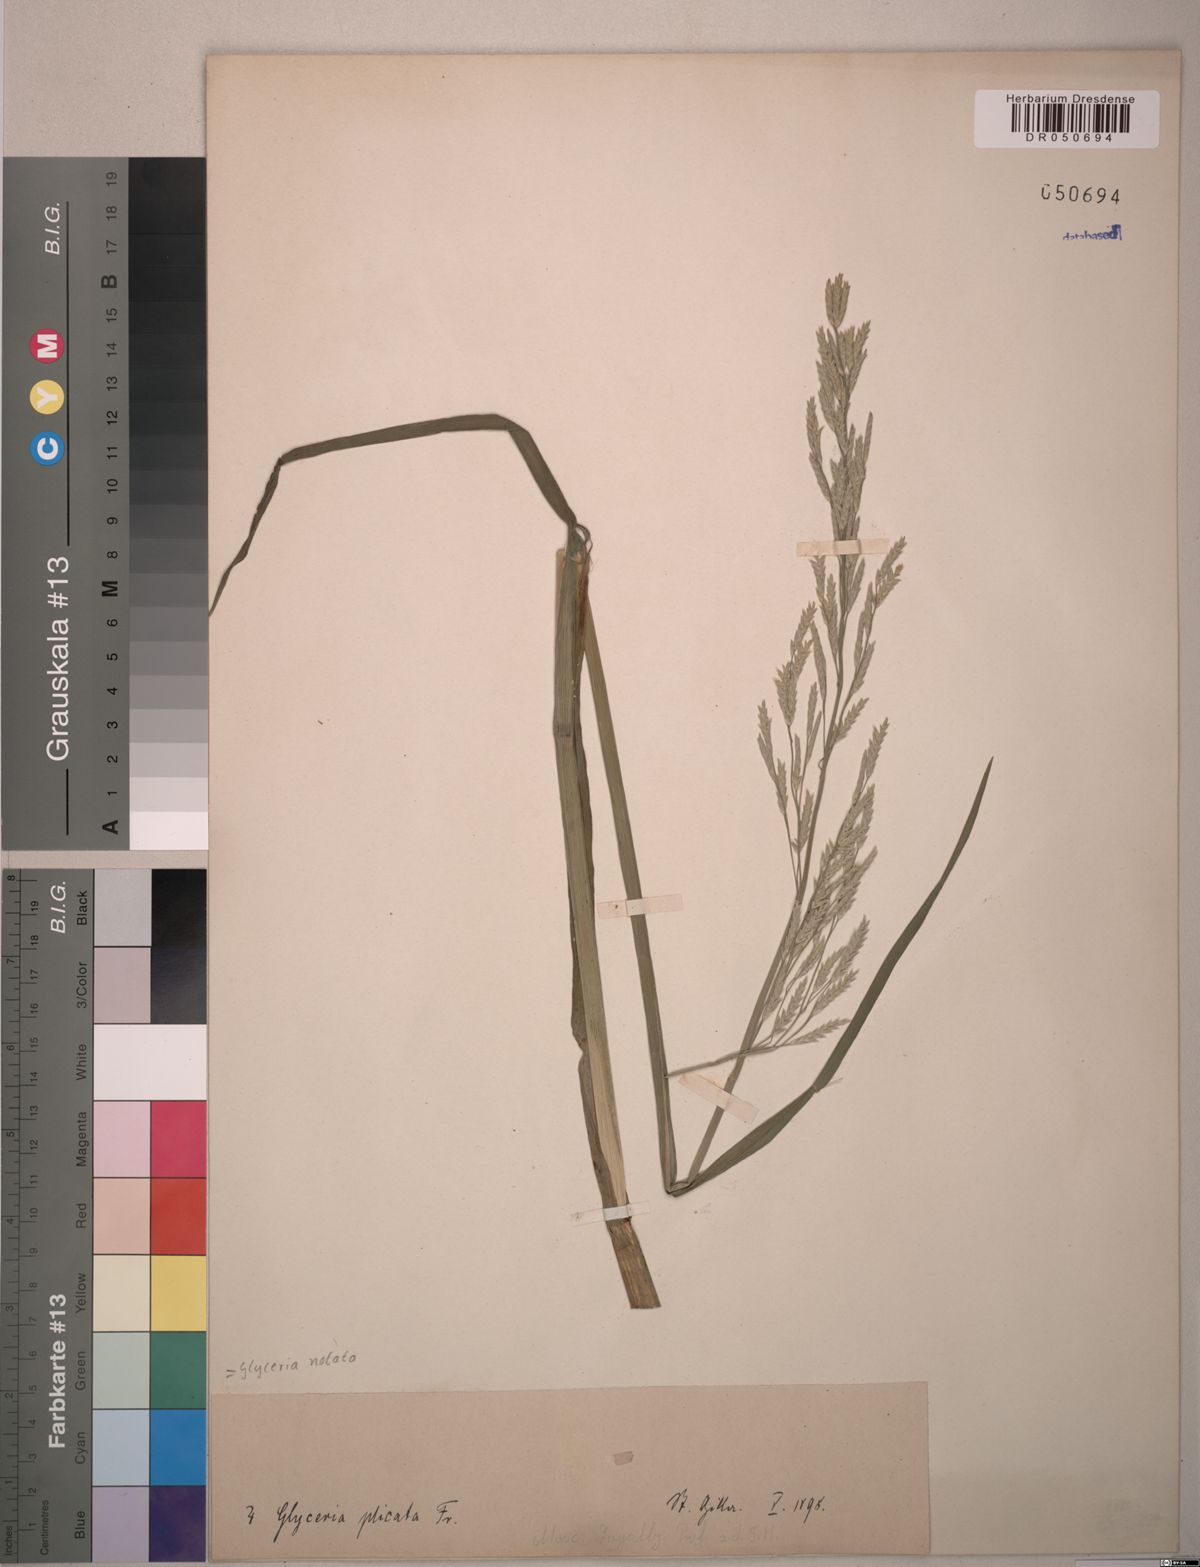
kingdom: Plantae
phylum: Tracheophyta
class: Liliopsida
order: Poales
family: Poaceae
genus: Glyceria
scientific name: Glyceria notata
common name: Plicate sweet-grass
